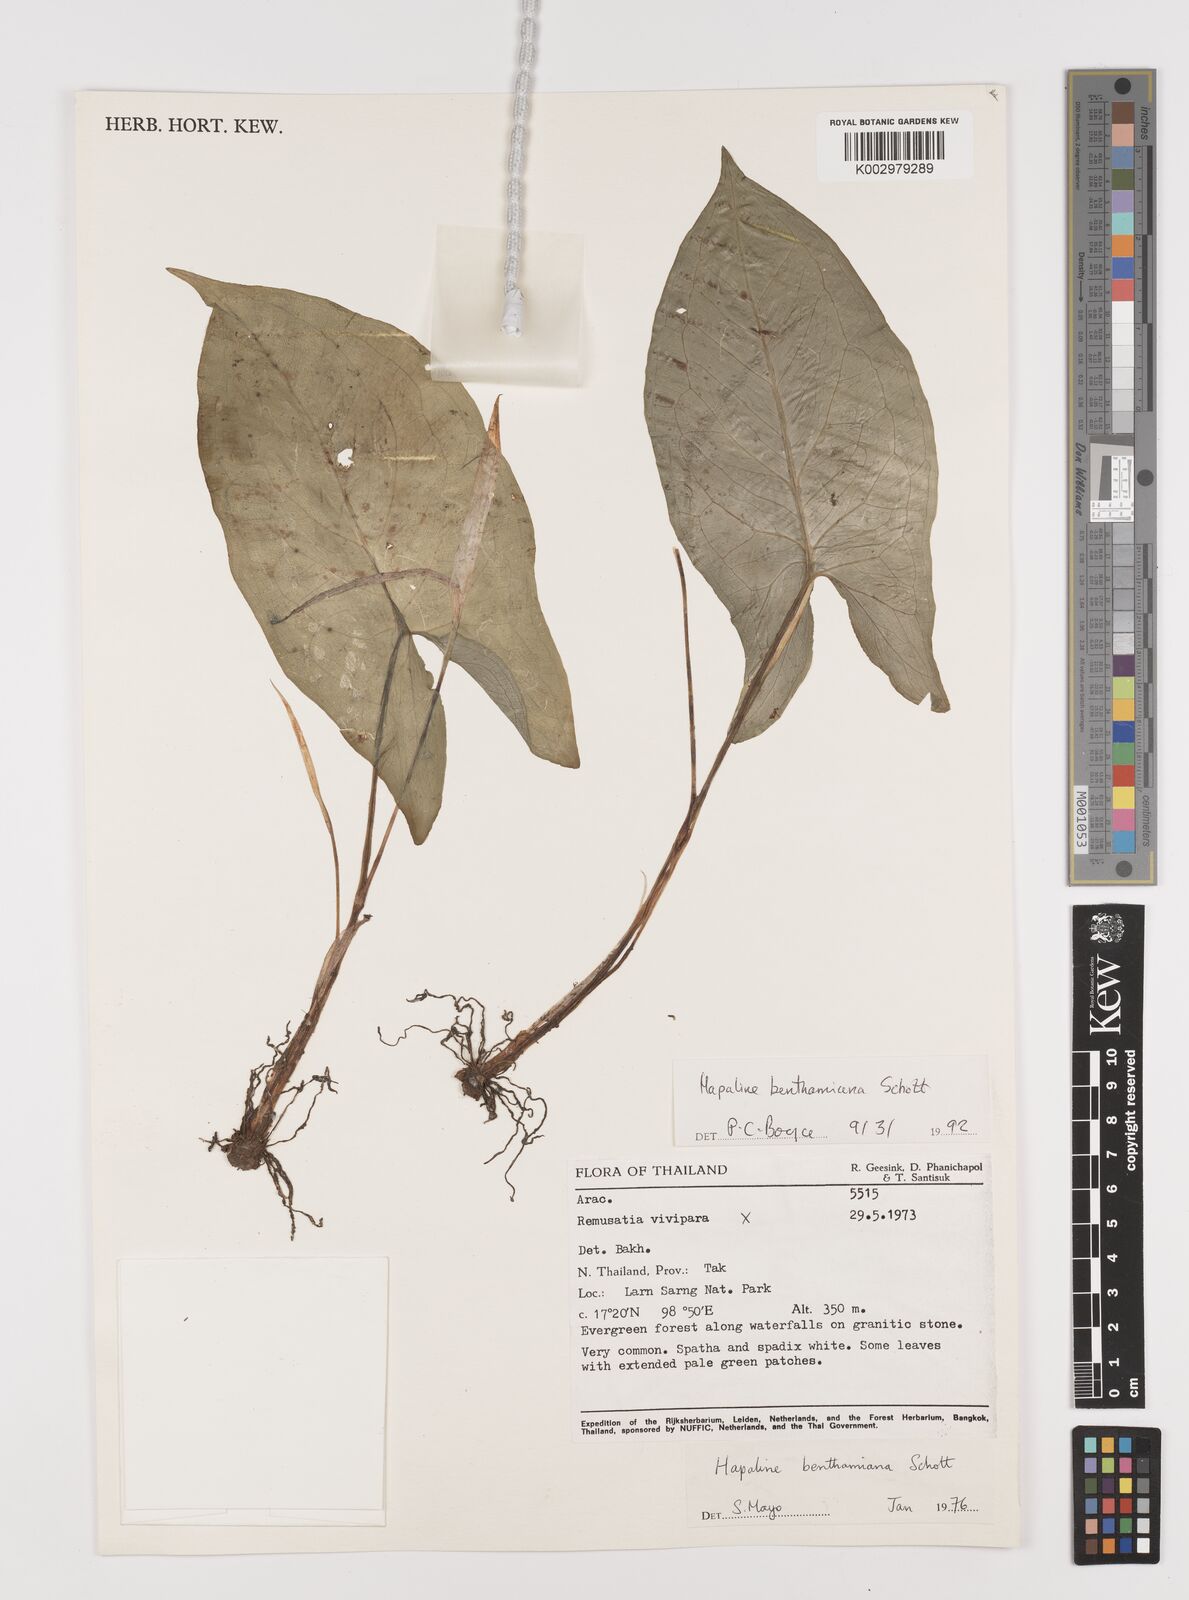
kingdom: Plantae
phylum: Tracheophyta
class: Liliopsida
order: Alismatales
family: Araceae
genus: Hapaline
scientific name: Hapaline benthamiana
